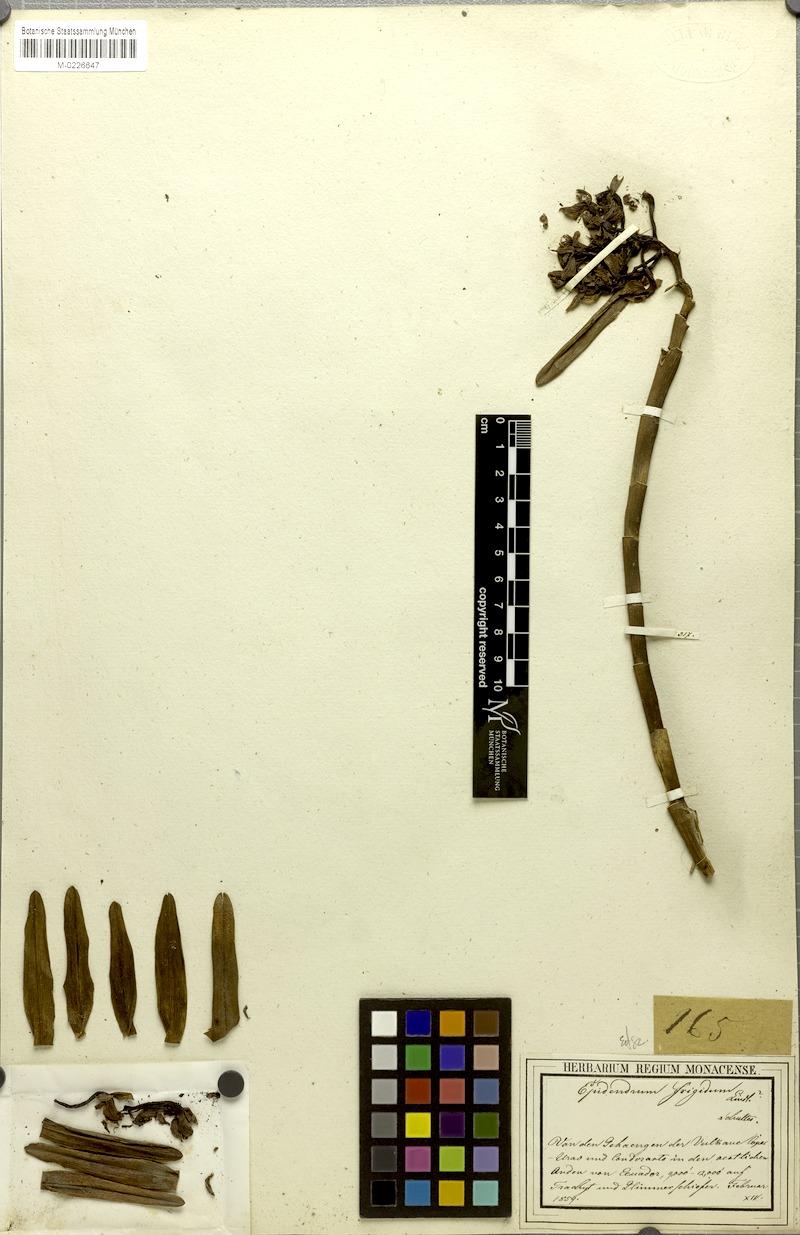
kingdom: Plantae
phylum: Tracheophyta
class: Liliopsida
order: Asparagales
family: Orchidaceae
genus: Epidendrum
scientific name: Epidendrum frigidum
